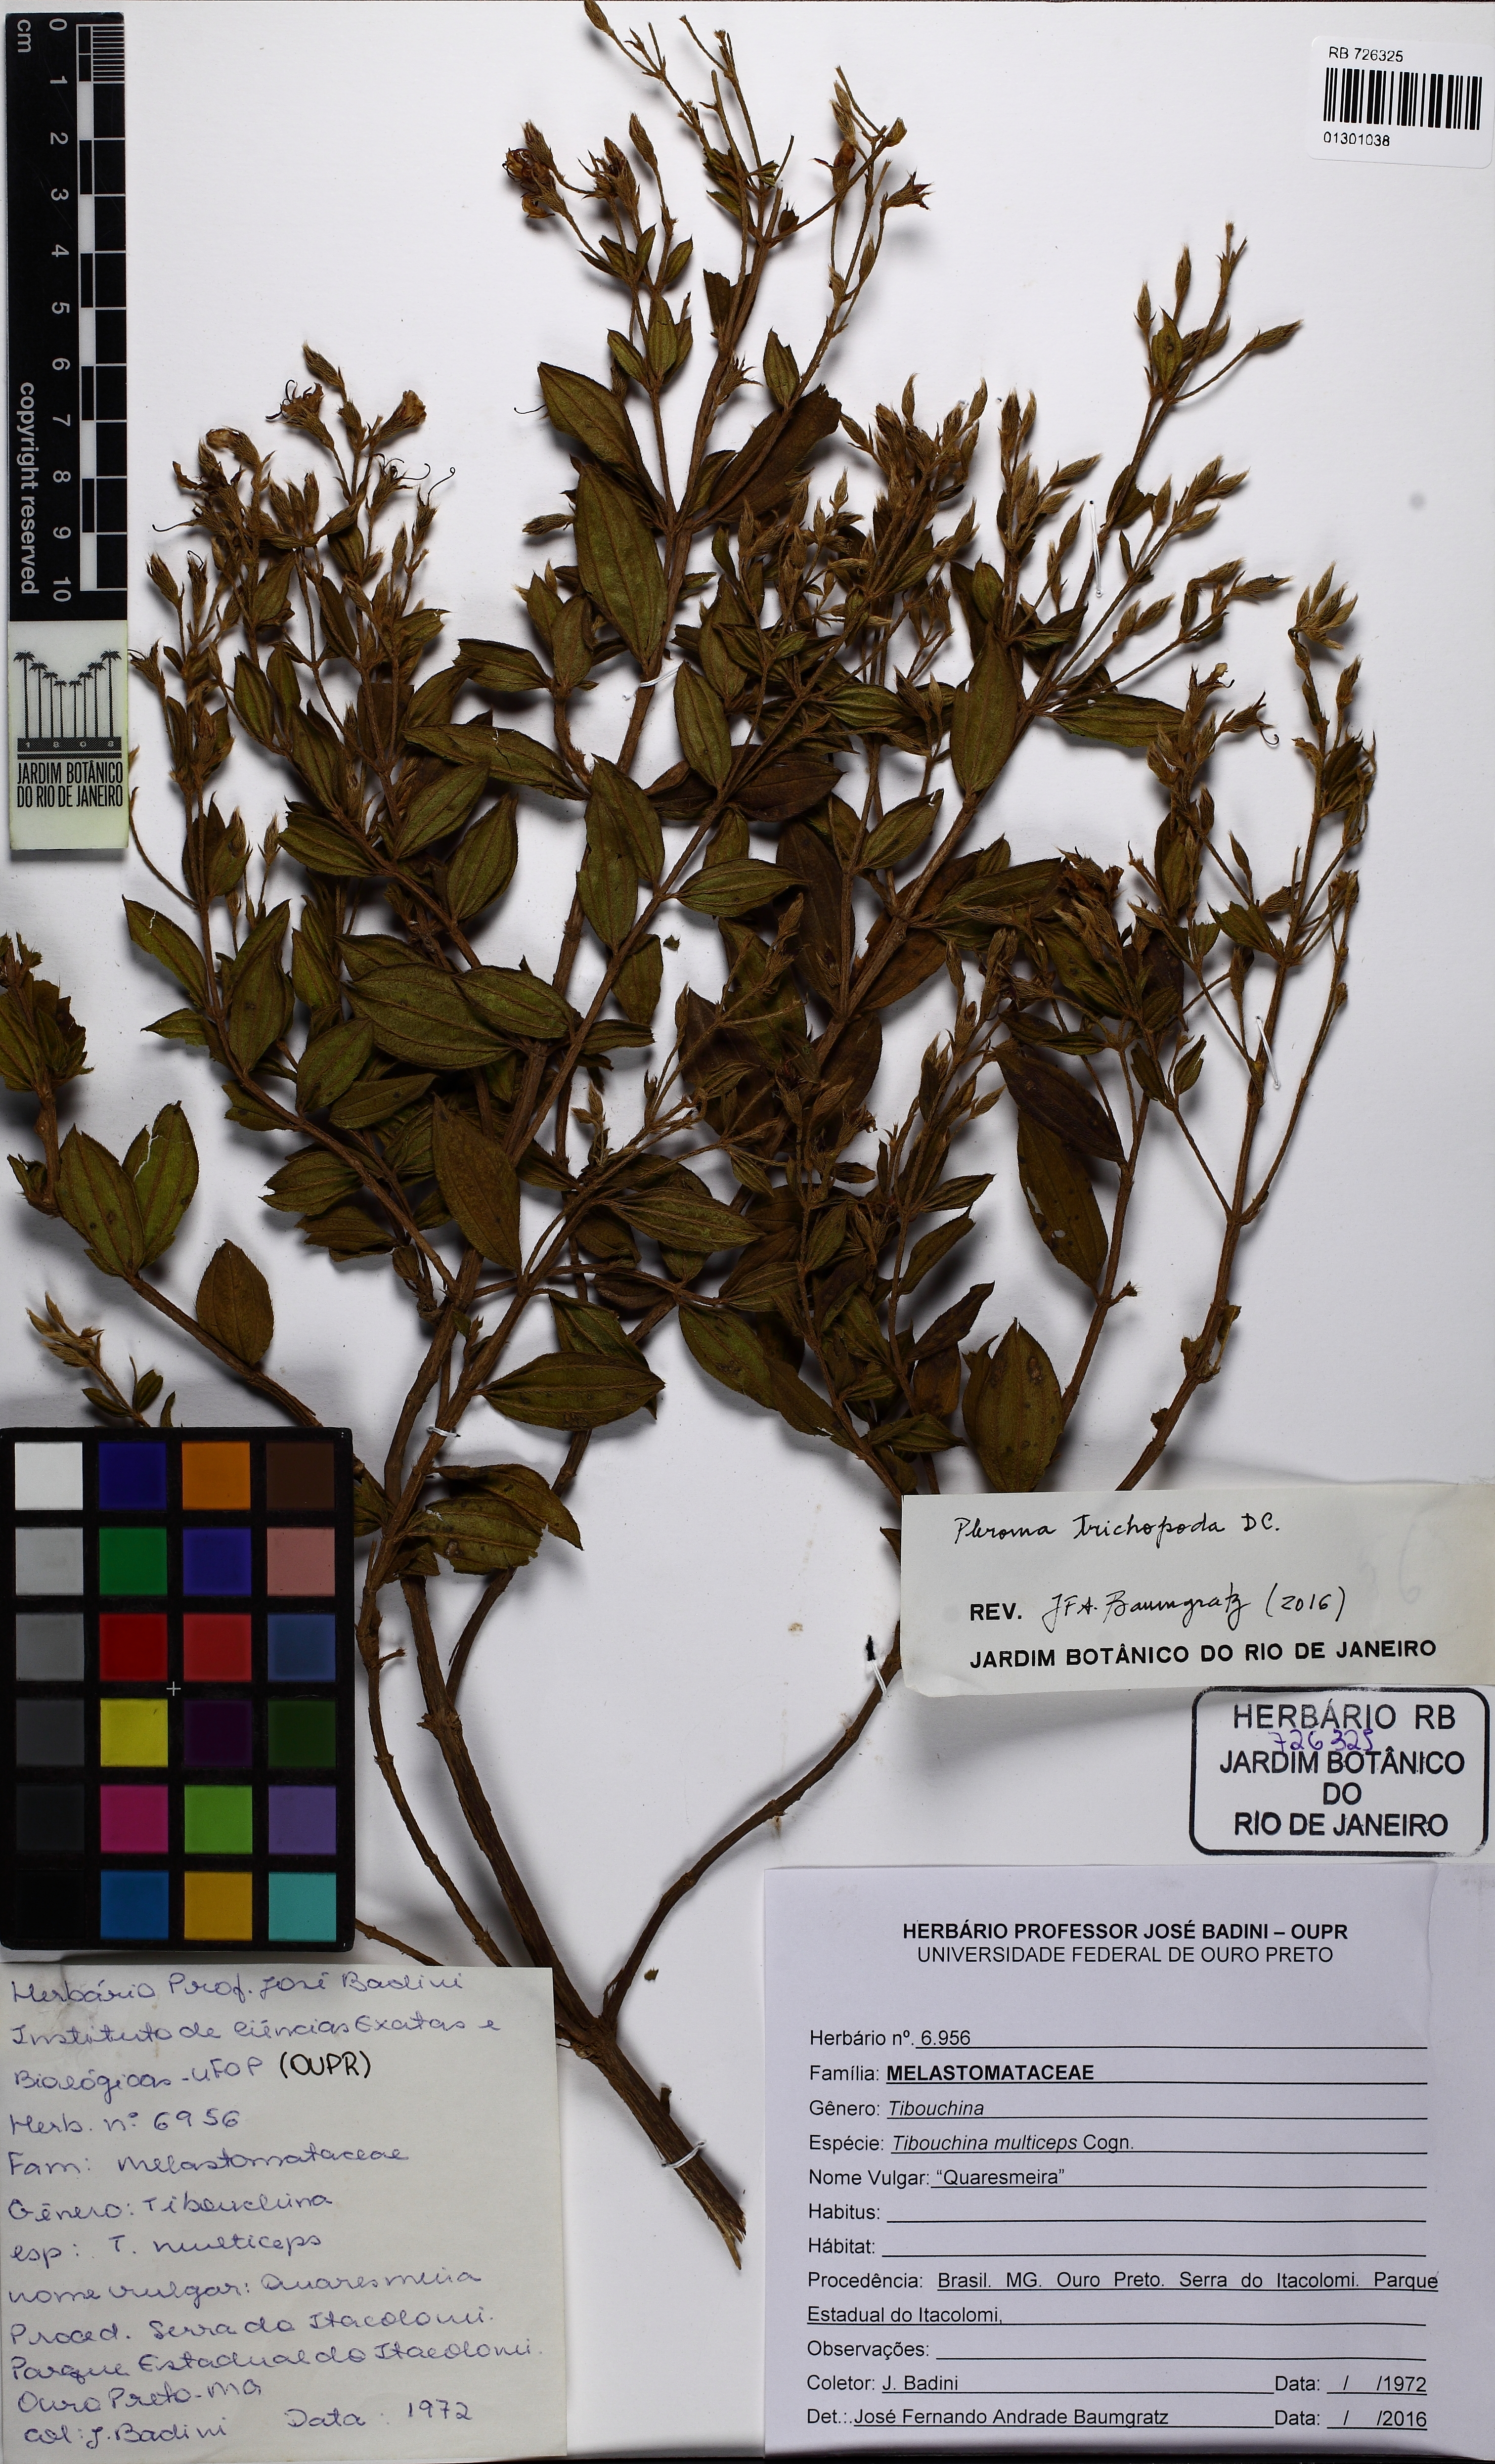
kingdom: Plantae
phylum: Tracheophyta
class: Magnoliopsida
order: Myrtales
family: Melastomataceae
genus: Pleroma
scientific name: Pleroma trichopodum
